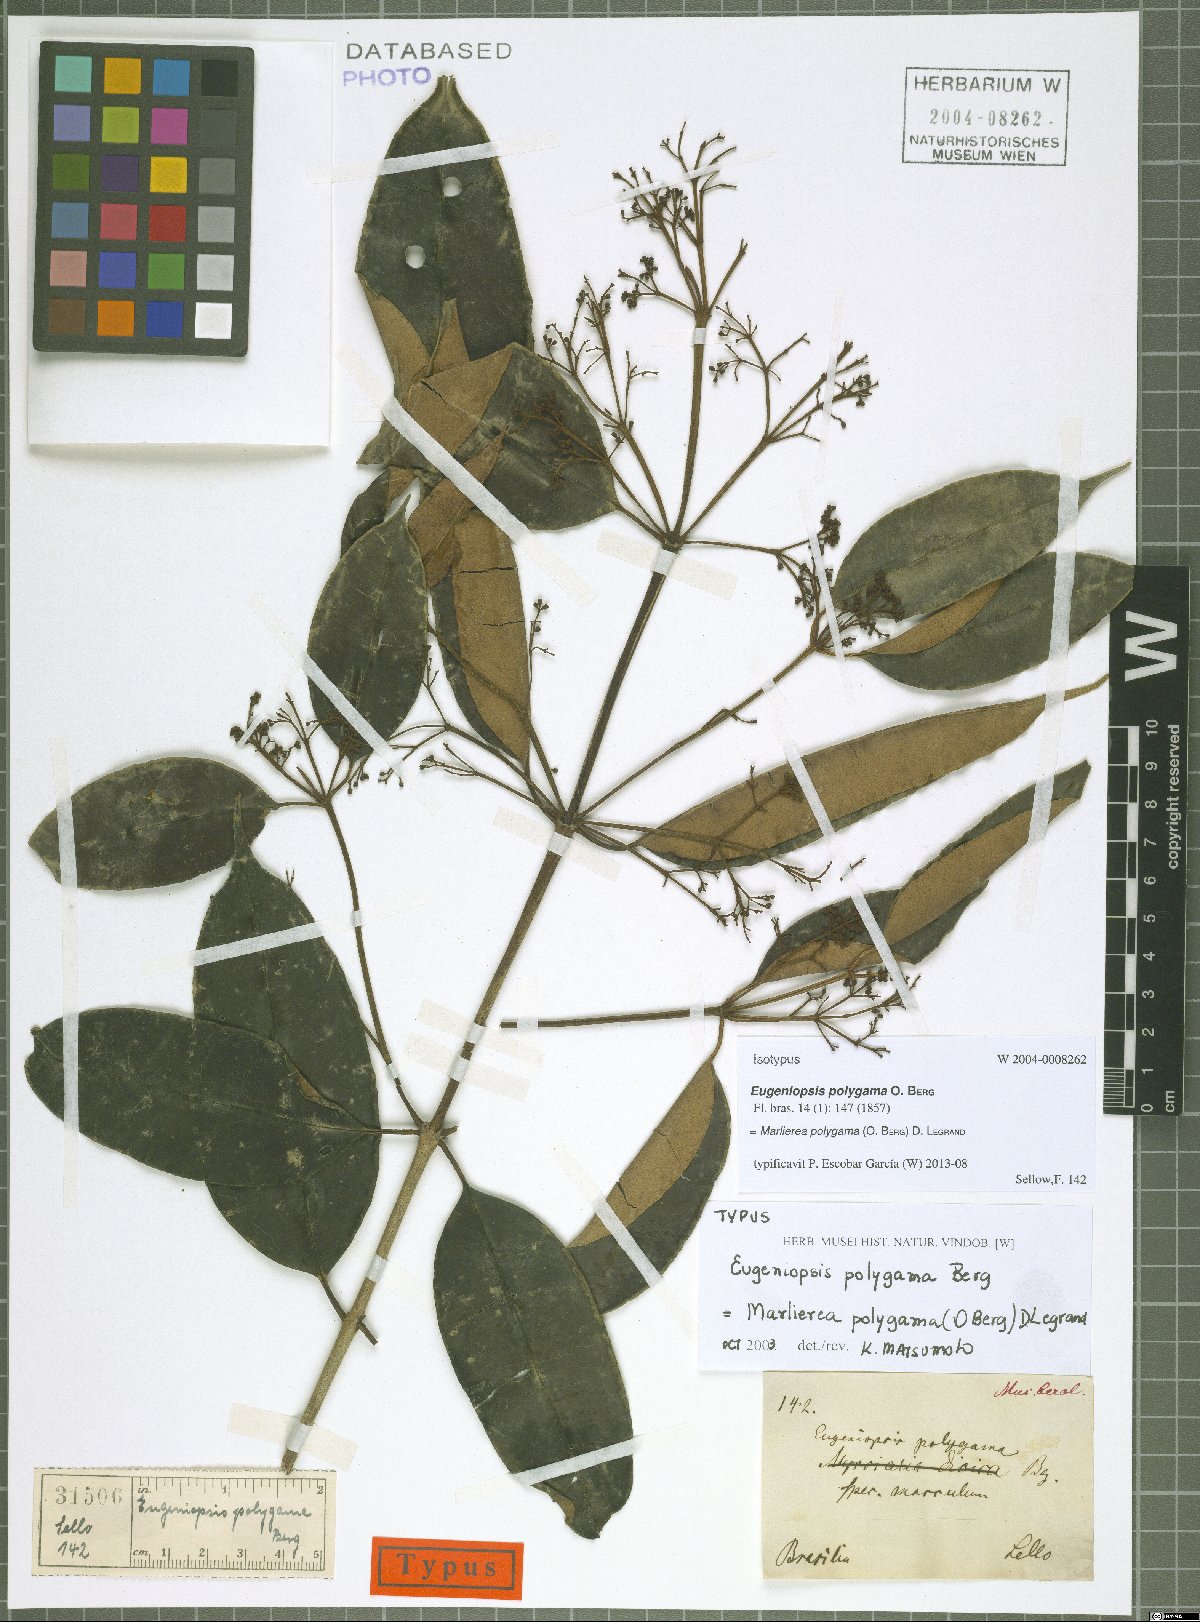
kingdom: Plantae
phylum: Tracheophyta
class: Magnoliopsida
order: Myrtales
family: Myrtaceae
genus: Myrcia
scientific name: Myrcia polygama
